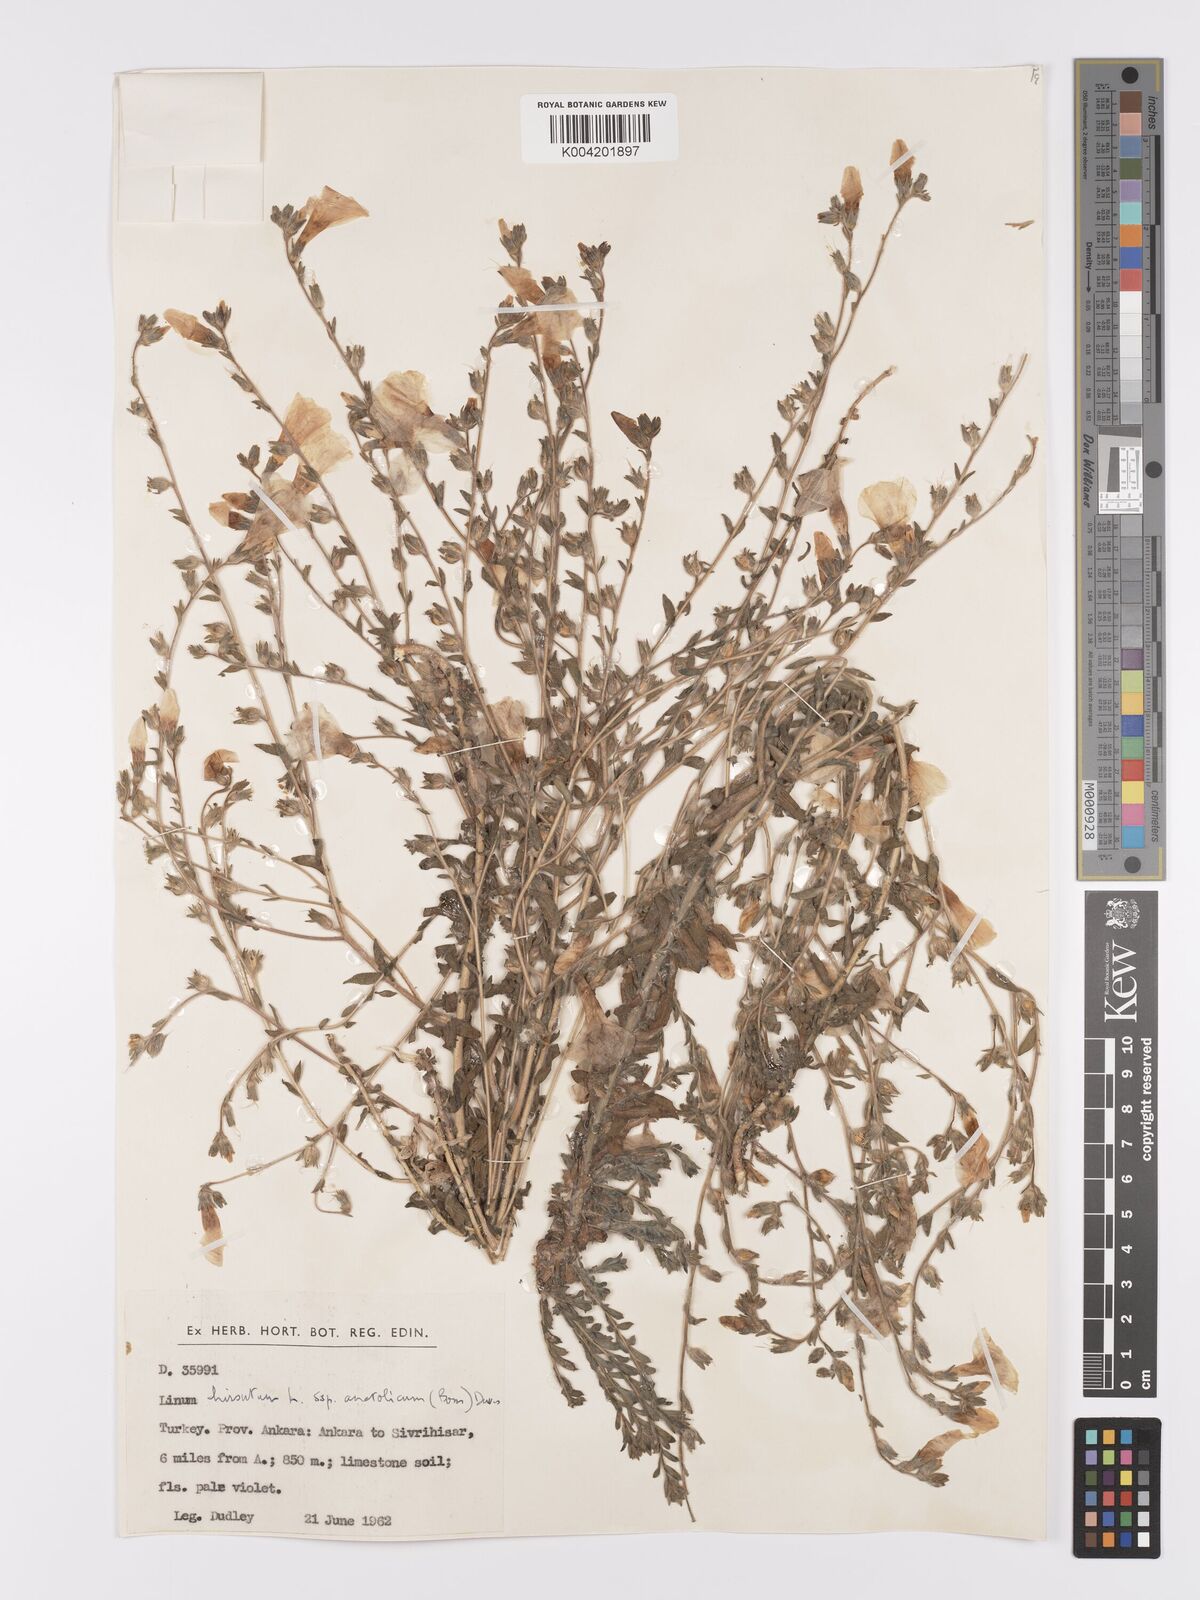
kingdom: Plantae
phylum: Tracheophyta
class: Magnoliopsida
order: Malpighiales
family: Linaceae
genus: Linum
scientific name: Linum
